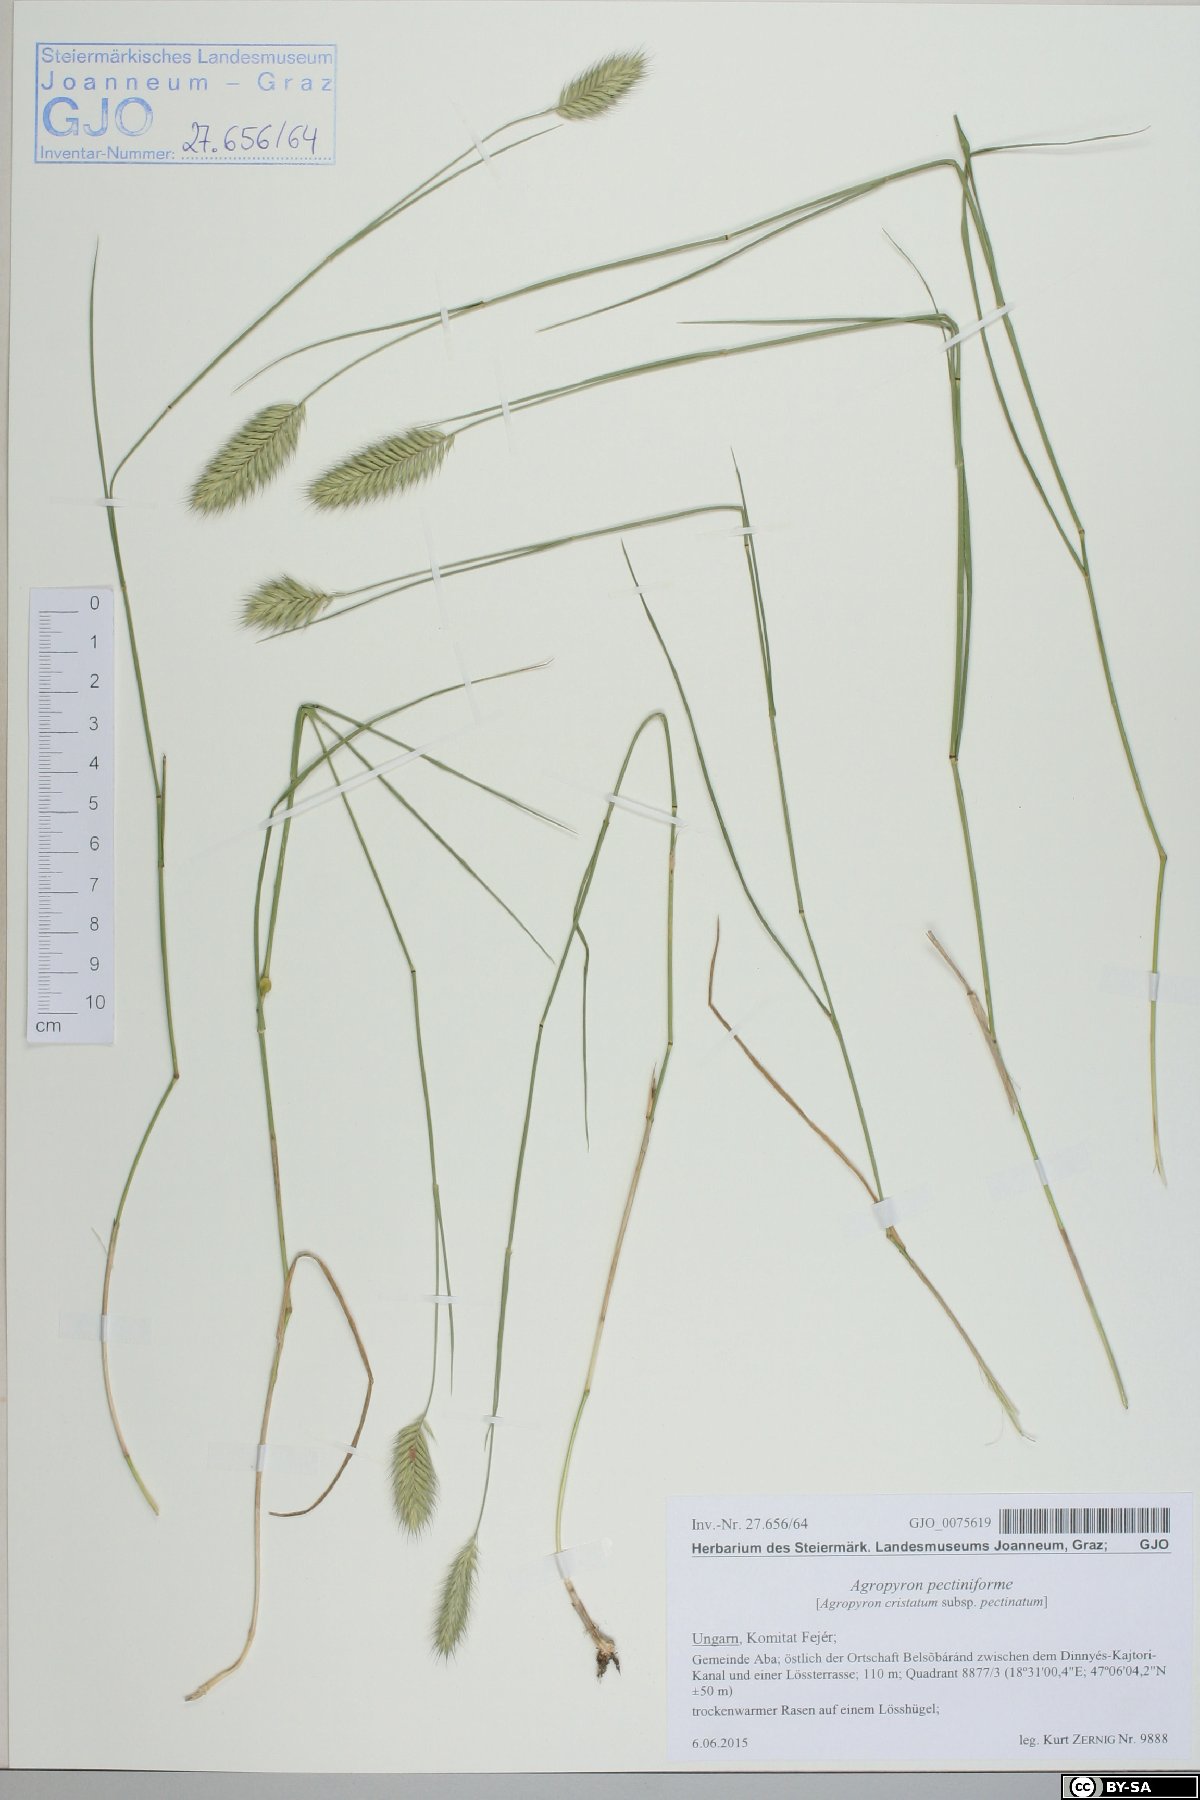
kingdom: Plantae
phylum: Tracheophyta
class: Liliopsida
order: Poales
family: Poaceae
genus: Agropyron
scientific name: Agropyron cristatum
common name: Crested wheatgrass
